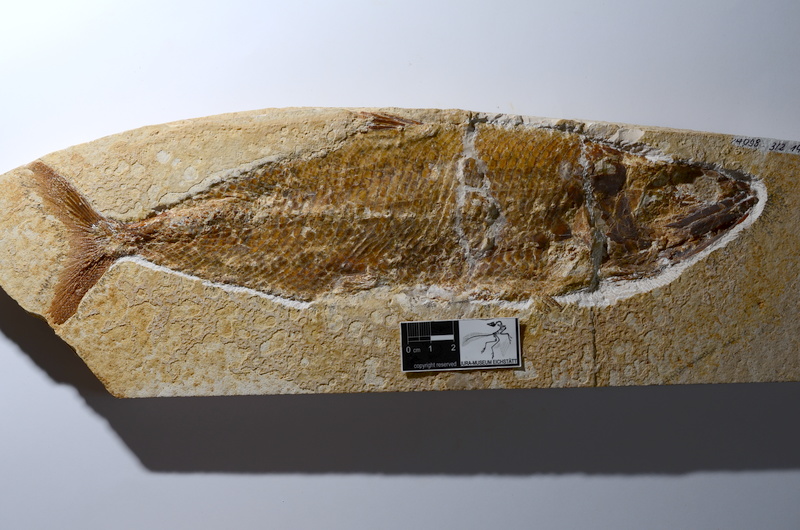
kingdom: Animalia
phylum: Chordata
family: Ankylophoridae
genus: Siemensichthys
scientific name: Siemensichthys macrocephalus
